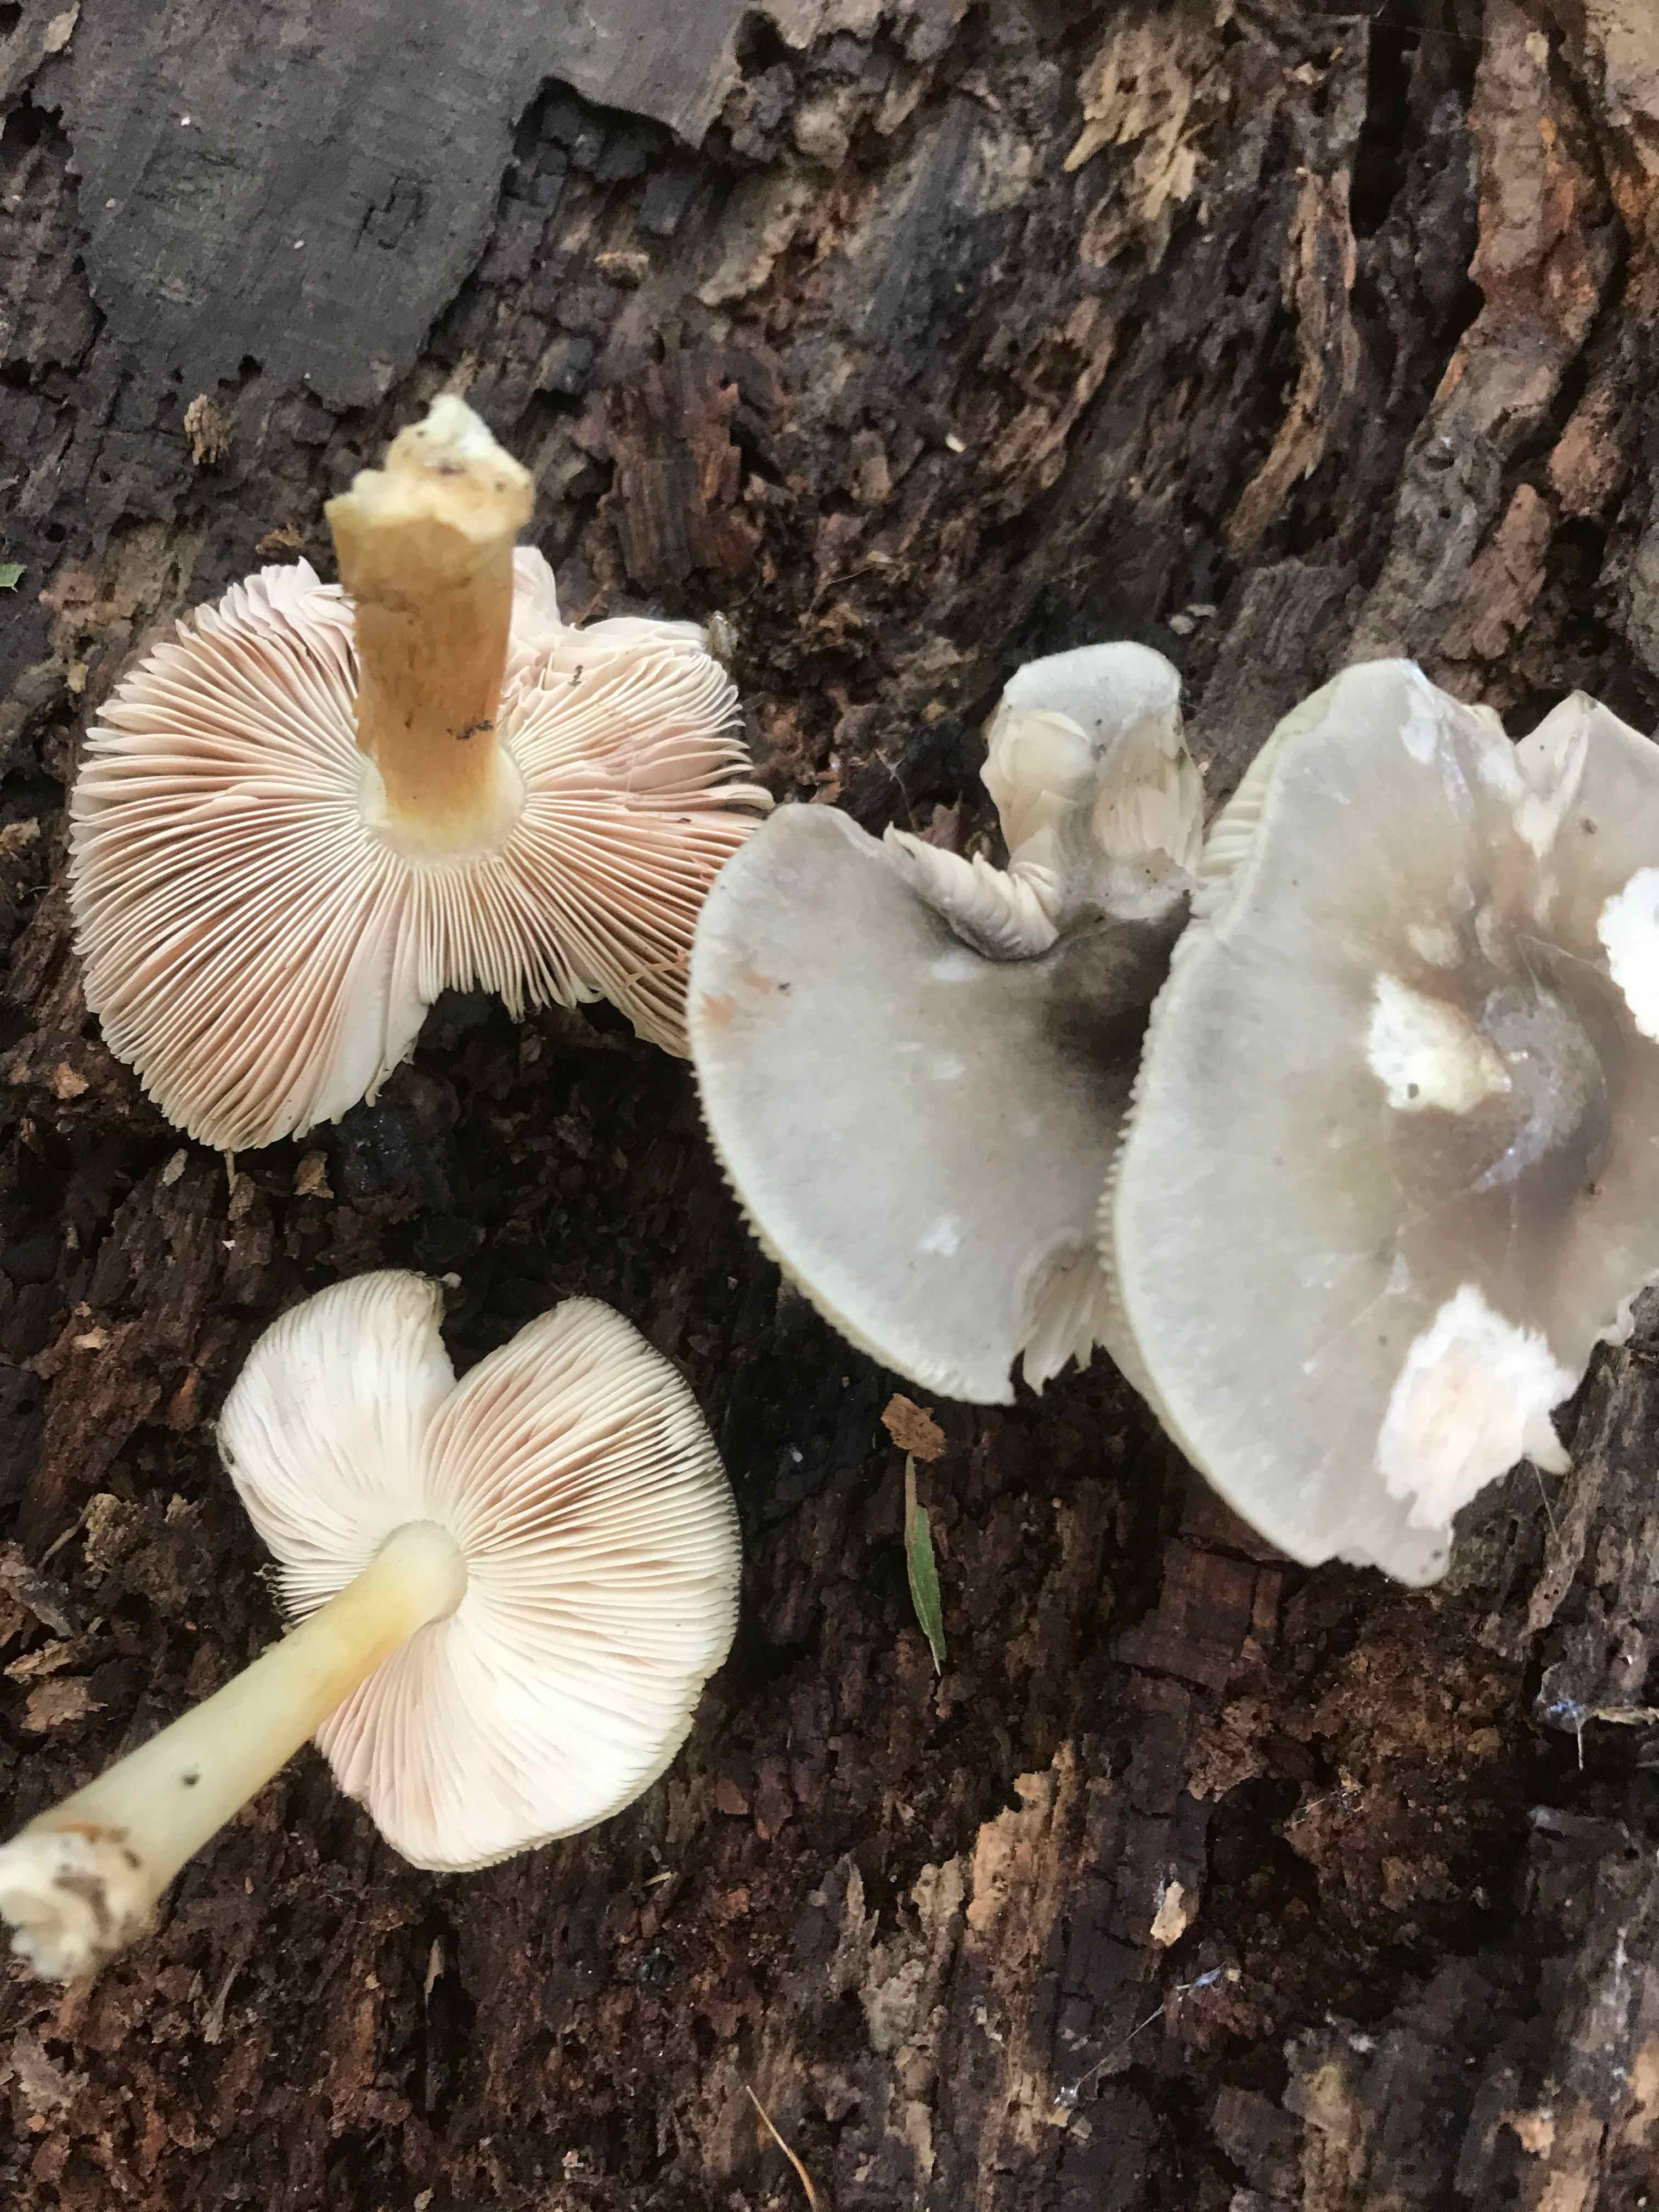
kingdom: Fungi
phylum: Basidiomycota
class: Agaricomycetes
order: Agaricales
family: Pluteaceae
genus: Pluteus
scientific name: Pluteus salicinus
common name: stiv skærmhat
